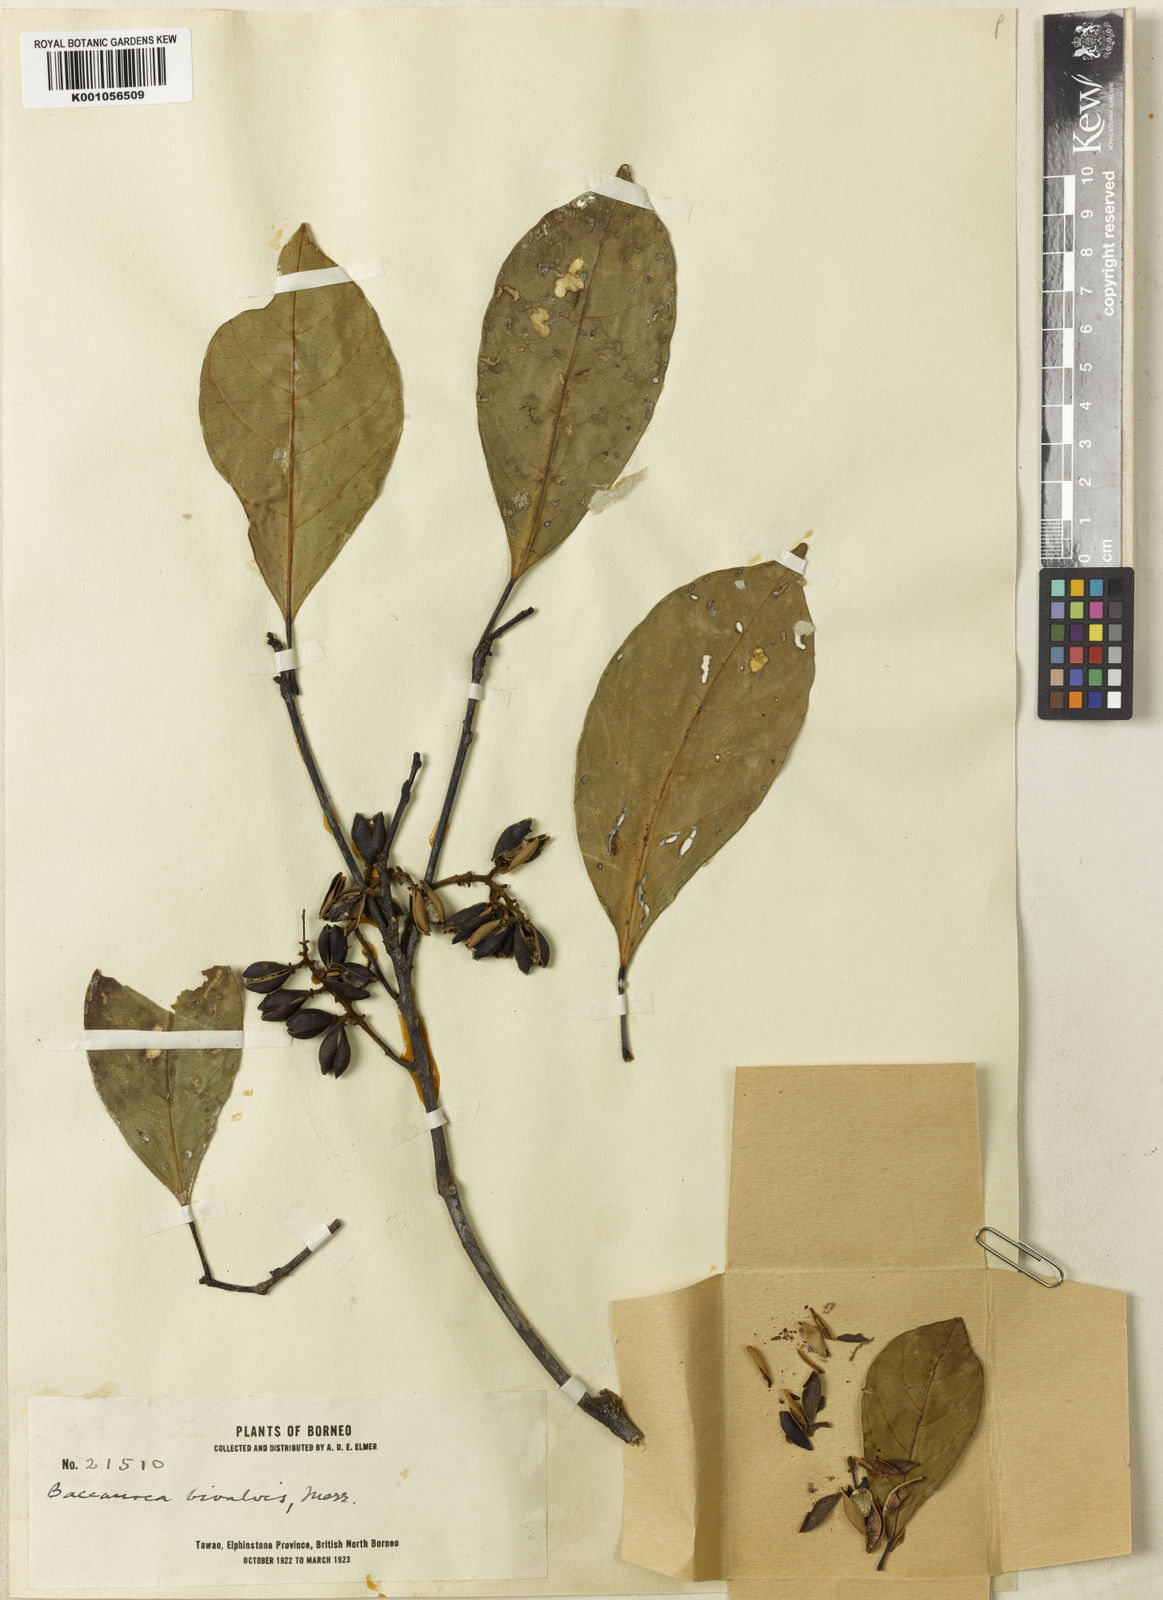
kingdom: Plantae
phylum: Tracheophyta
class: Magnoliopsida
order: Malpighiales
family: Phyllanthaceae
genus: Baccaurea
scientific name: Baccaurea
